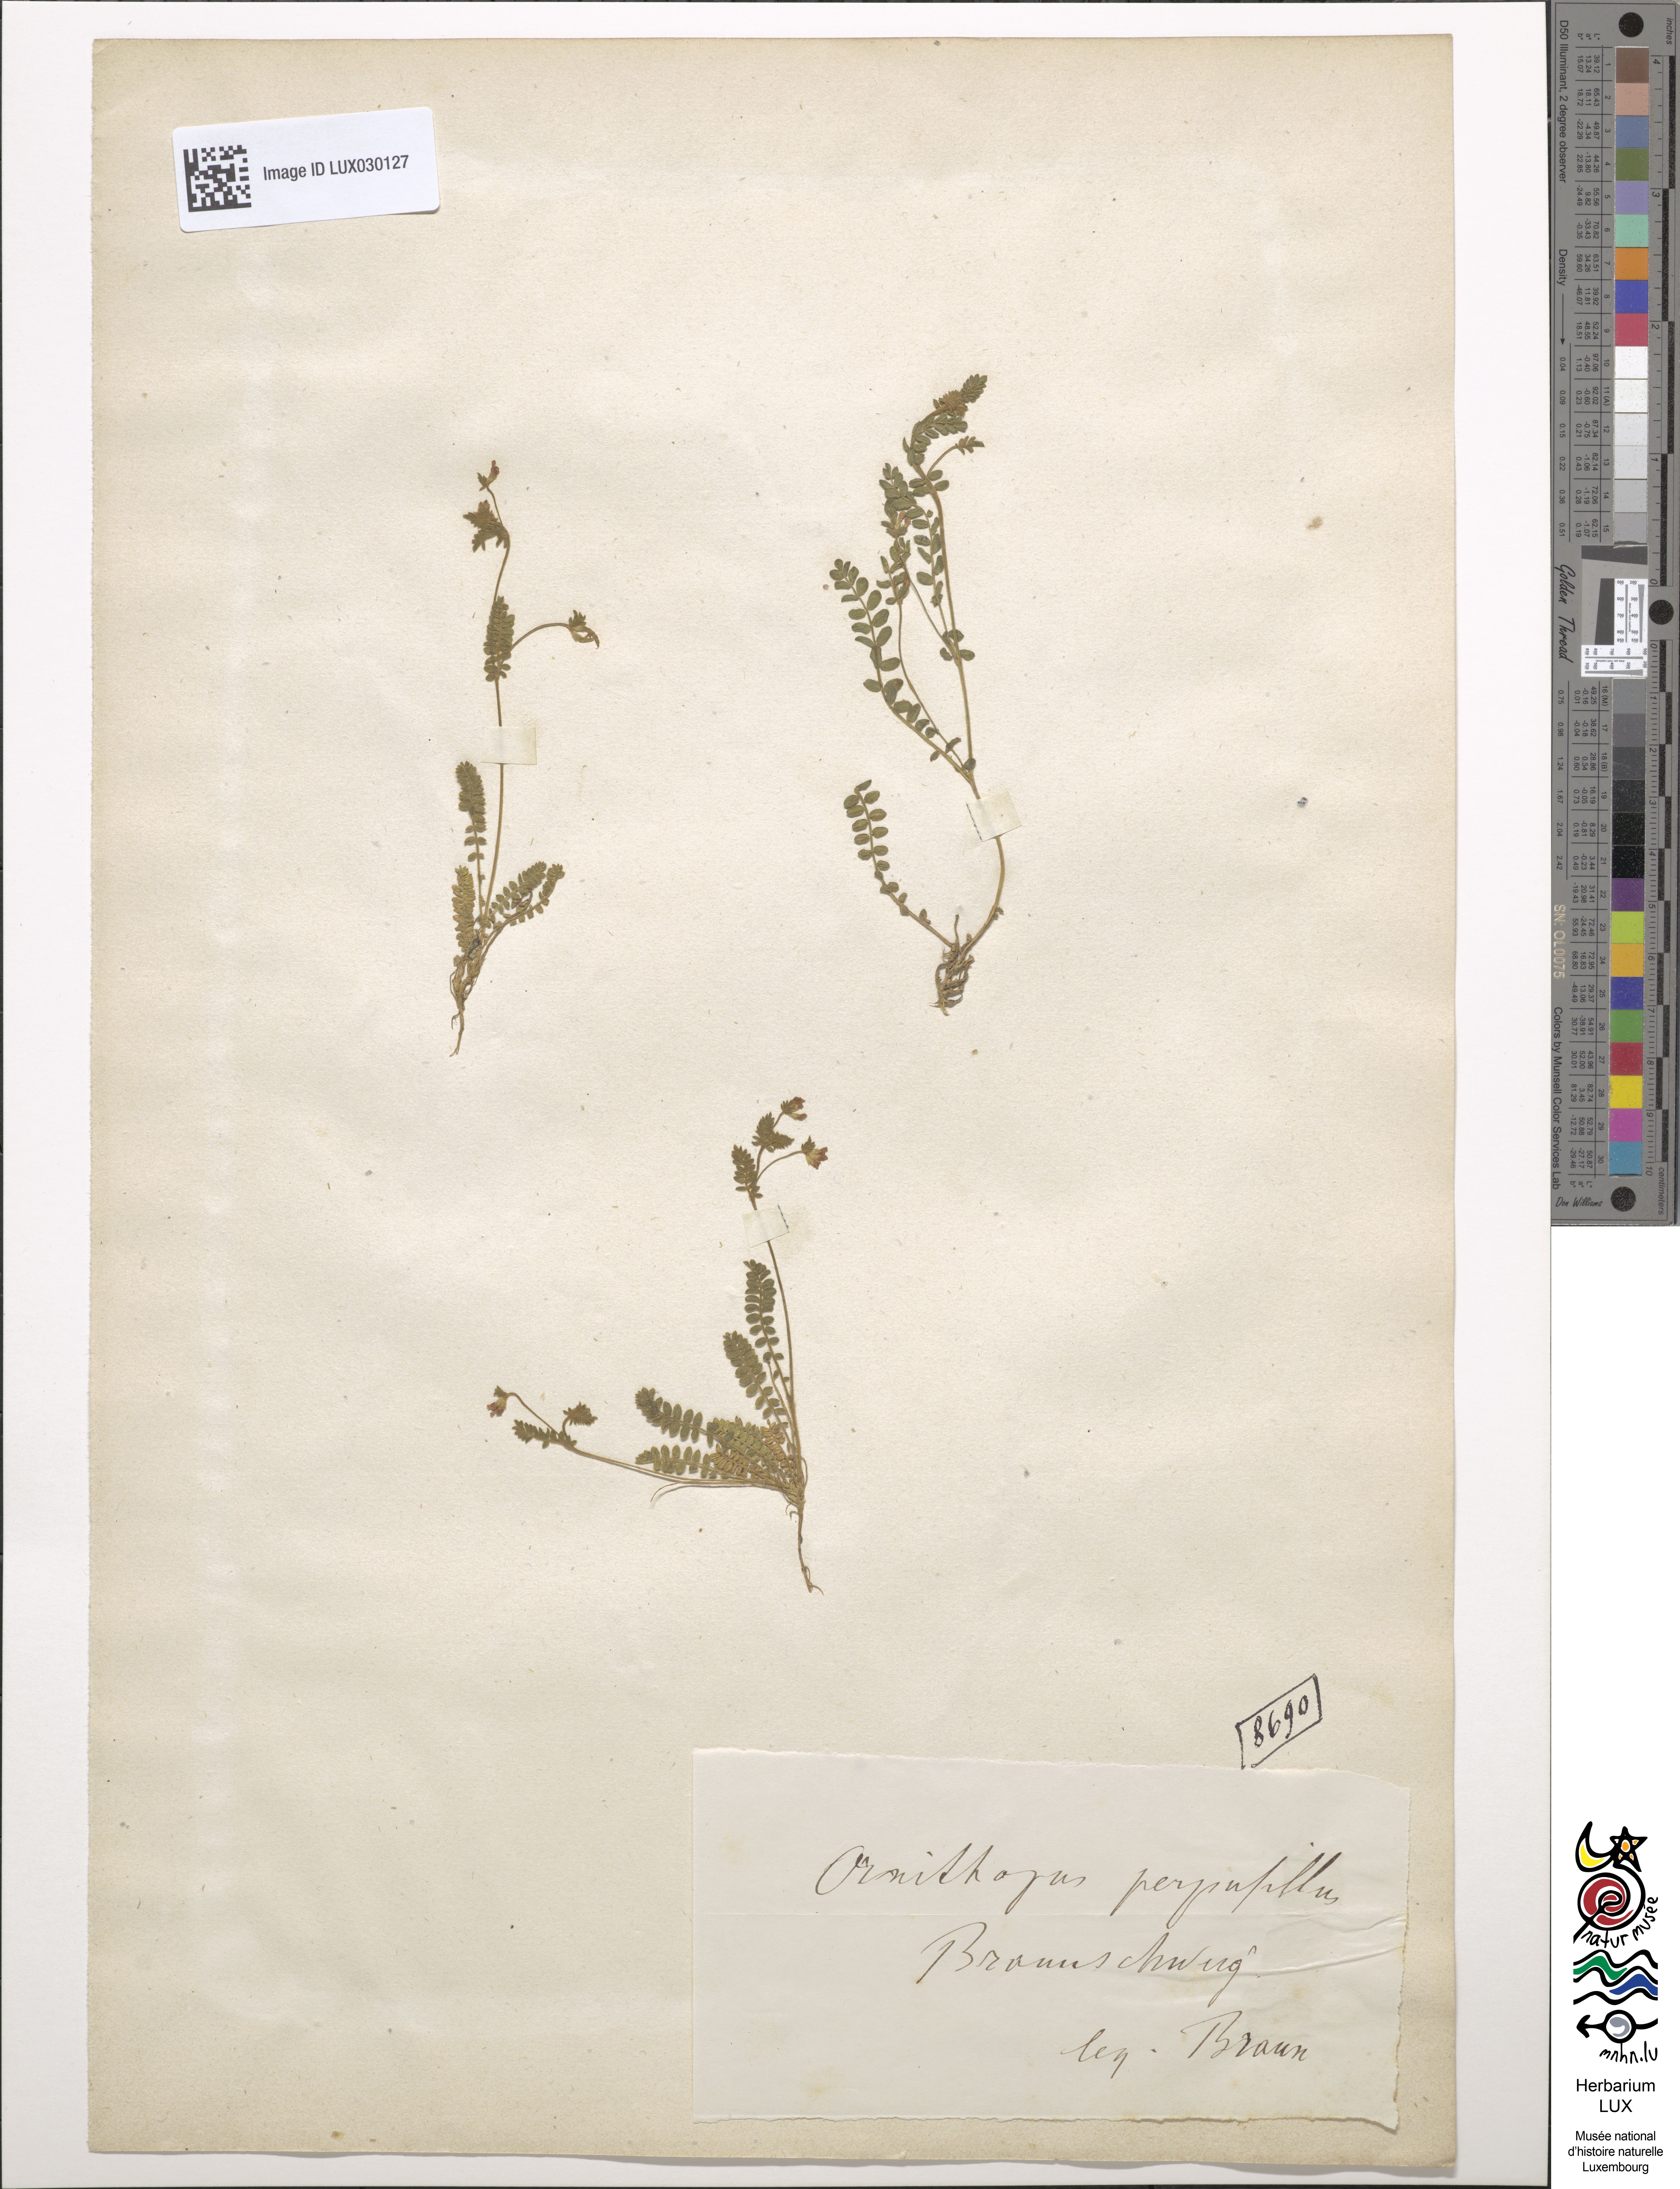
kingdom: Plantae
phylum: Tracheophyta
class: Magnoliopsida
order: Fabales
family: Fabaceae
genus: Ornithopus
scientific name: Ornithopus perpusillus
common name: Bird's-foot
